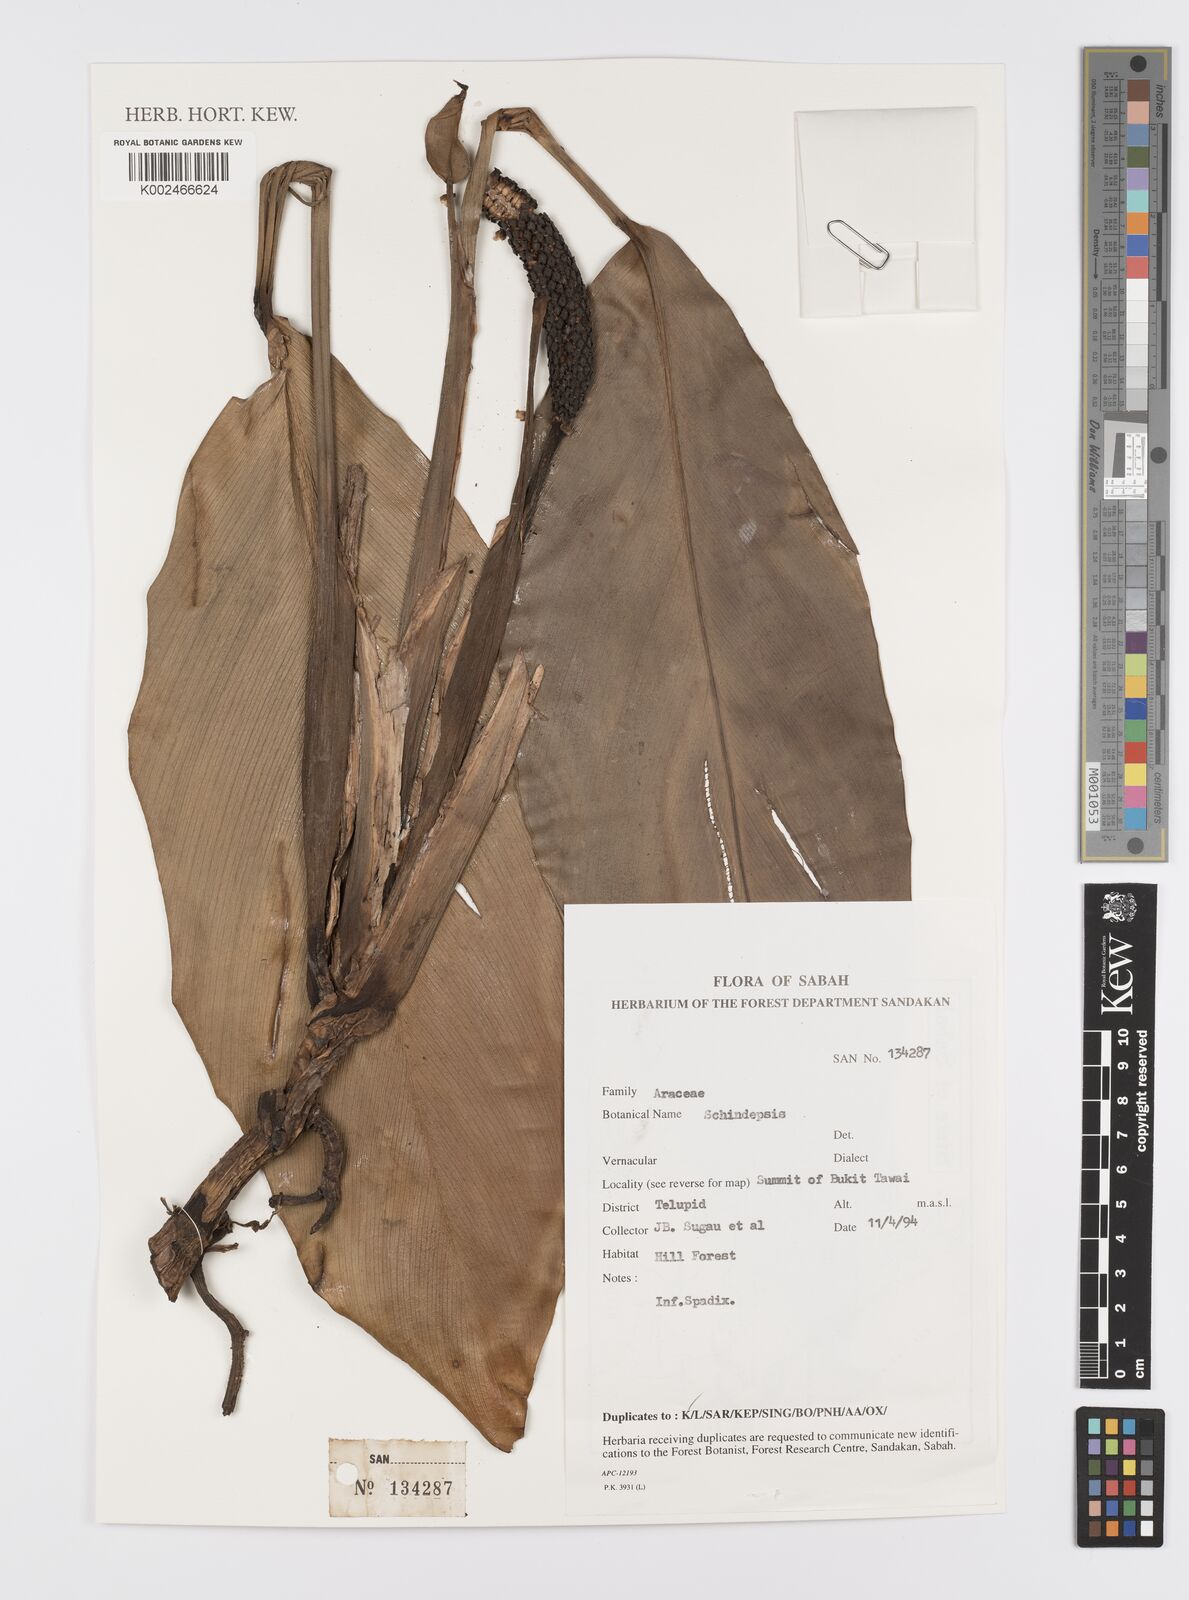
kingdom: Plantae
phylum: Tracheophyta
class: Liliopsida
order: Alismatales
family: Araceae
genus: Scindapsus
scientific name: Scindapsus
